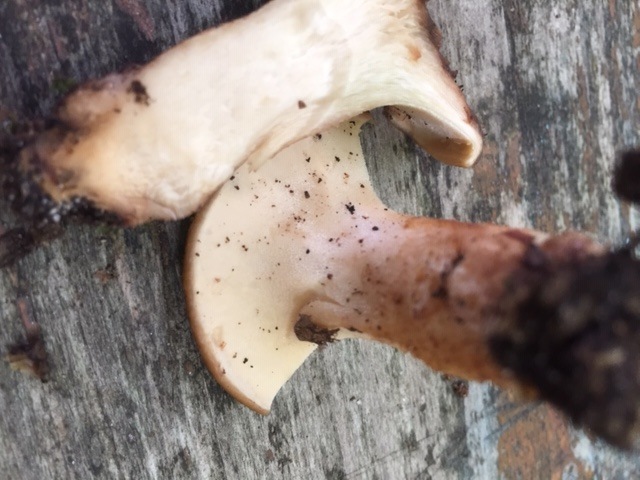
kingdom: Fungi
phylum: Basidiomycota
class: Agaricomycetes
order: Polyporales
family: Polyporaceae
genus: Polyporus
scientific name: Polyporus tuberaster
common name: knoldet stilkporesvamp
